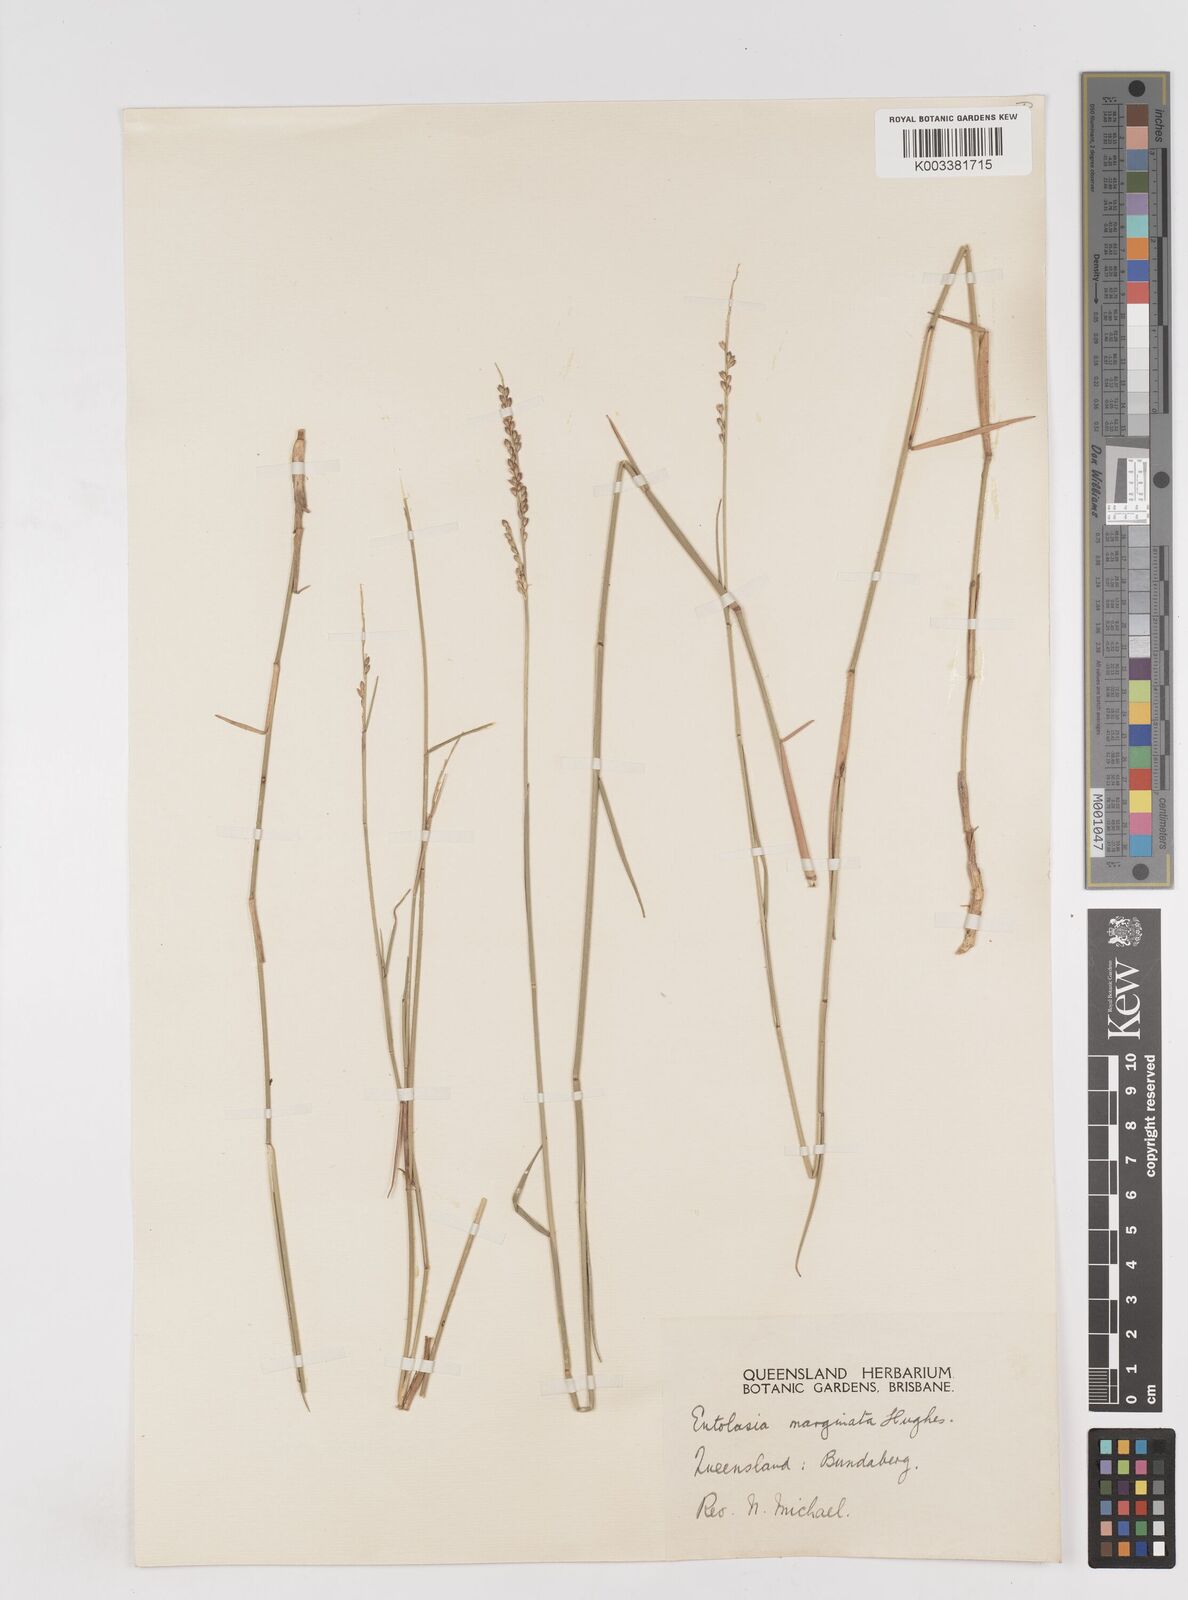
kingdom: Plantae
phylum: Tracheophyta
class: Liliopsida
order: Poales
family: Poaceae
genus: Entolasia
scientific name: Entolasia stricta
